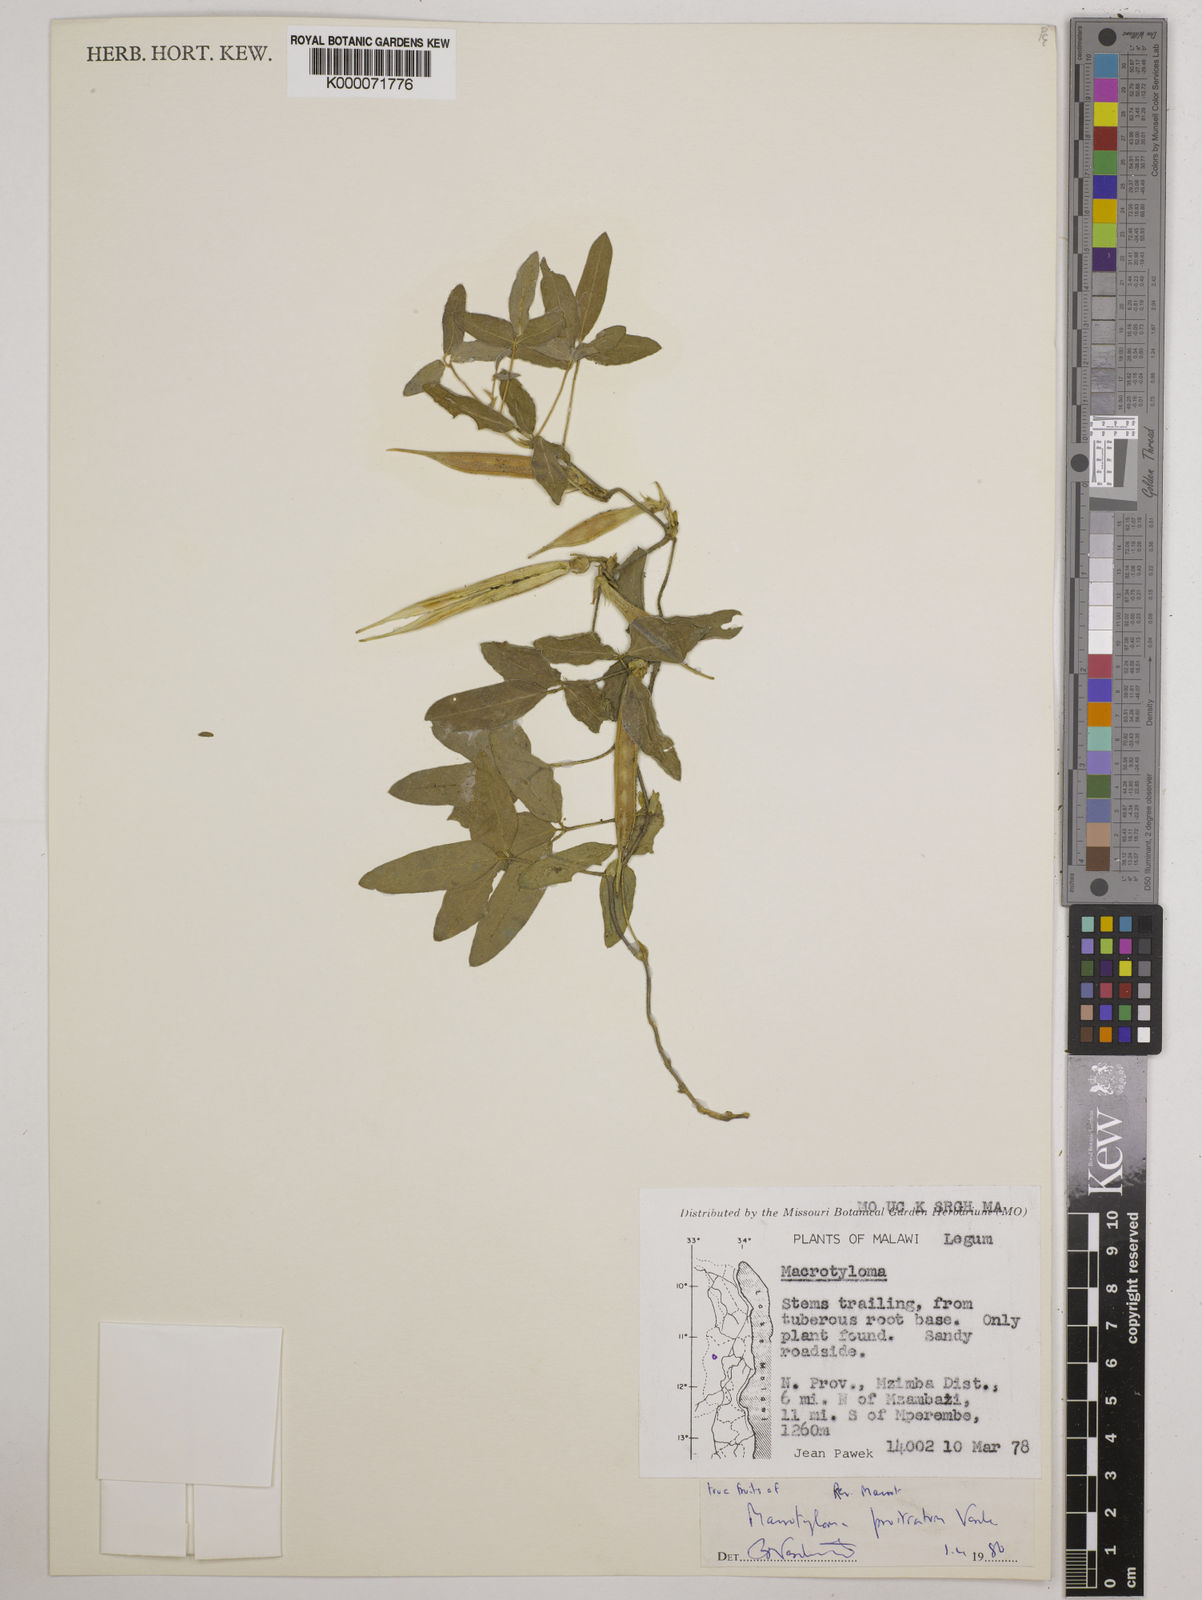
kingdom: Plantae
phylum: Tracheophyta
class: Magnoliopsida
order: Fabales
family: Fabaceae
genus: Macrotyloma
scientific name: Macrotyloma prostratum
